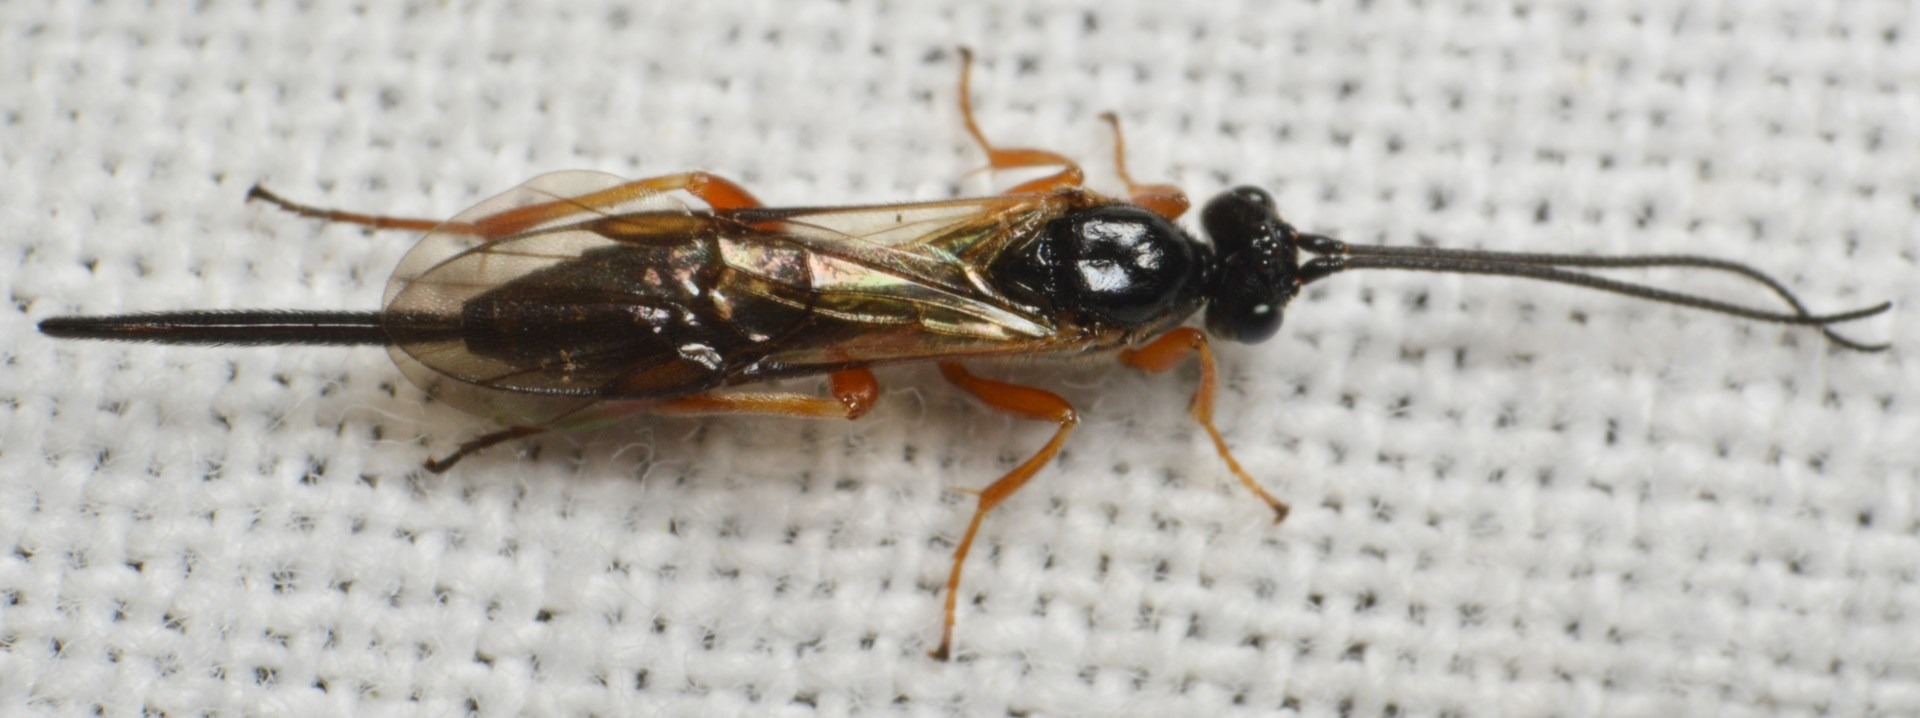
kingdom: Animalia
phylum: Arthropoda
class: Insecta
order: Hymenoptera
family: Braconidae
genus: Earinus
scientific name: Earinus elator
